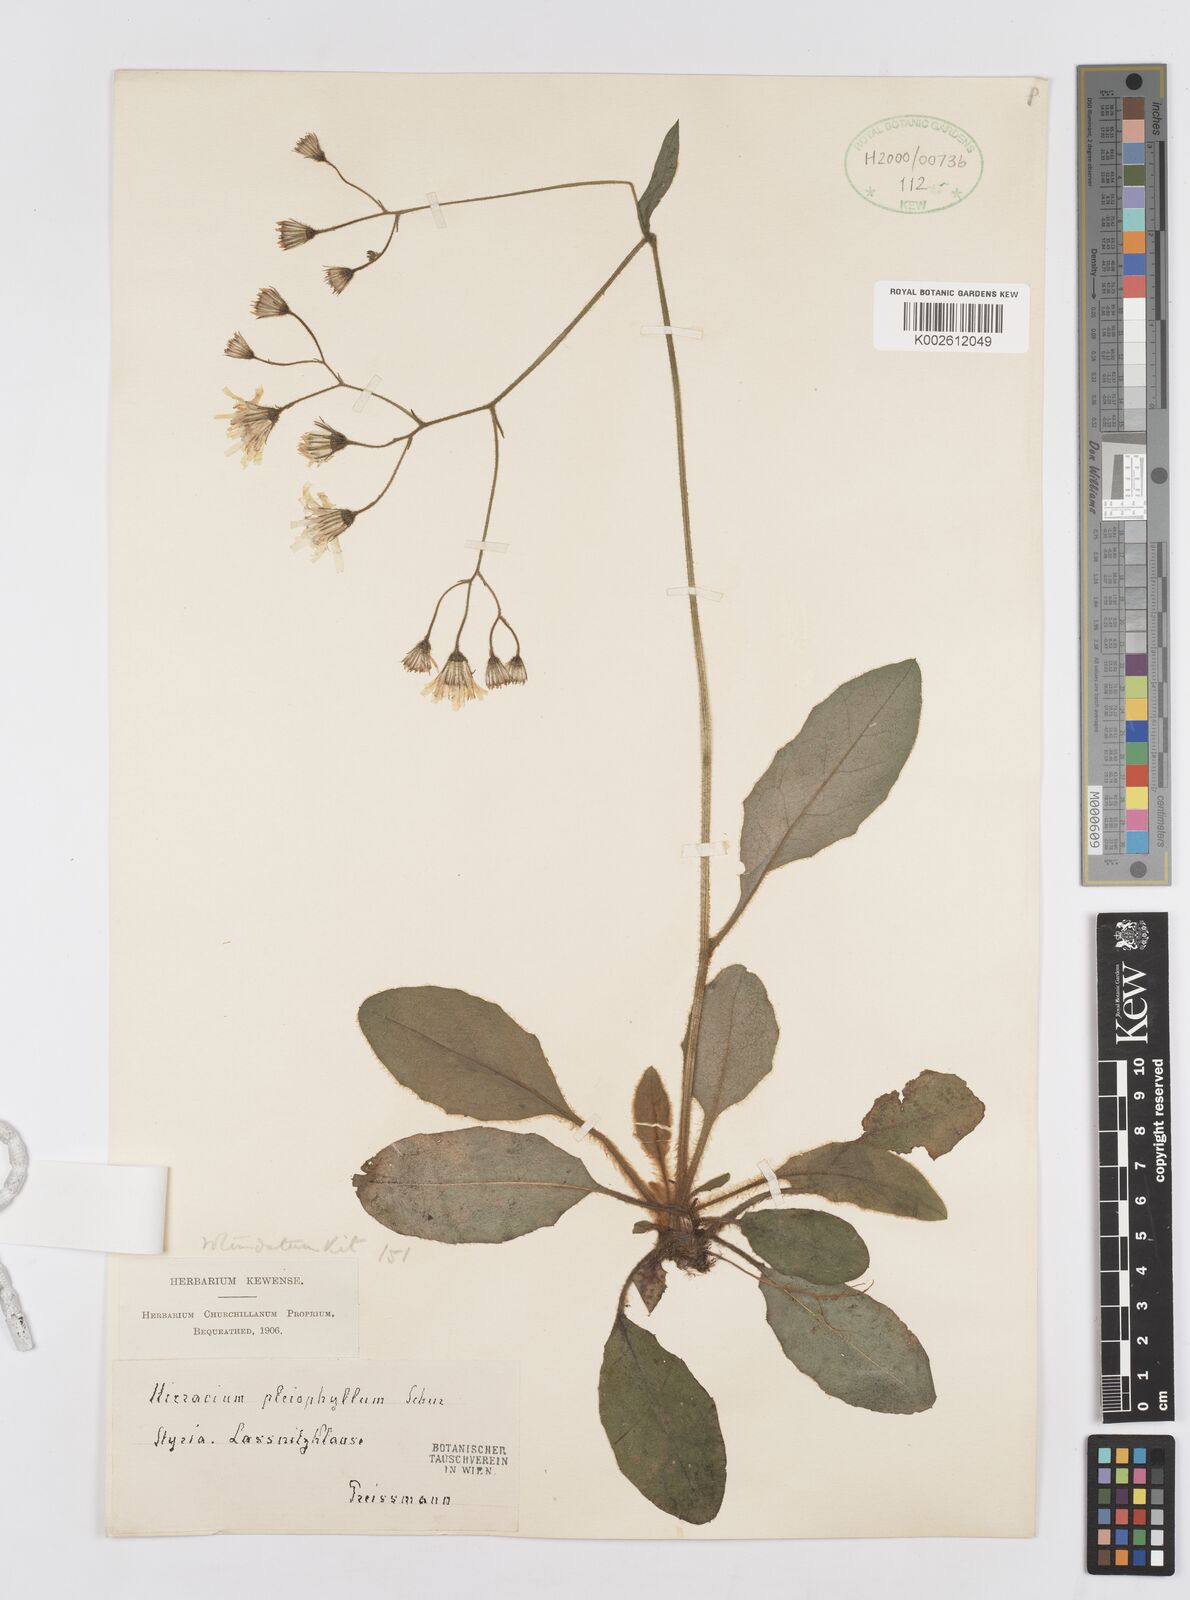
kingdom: Plantae
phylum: Tracheophyta
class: Magnoliopsida
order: Asterales
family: Asteraceae
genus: Hieracium
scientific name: Hieracium
